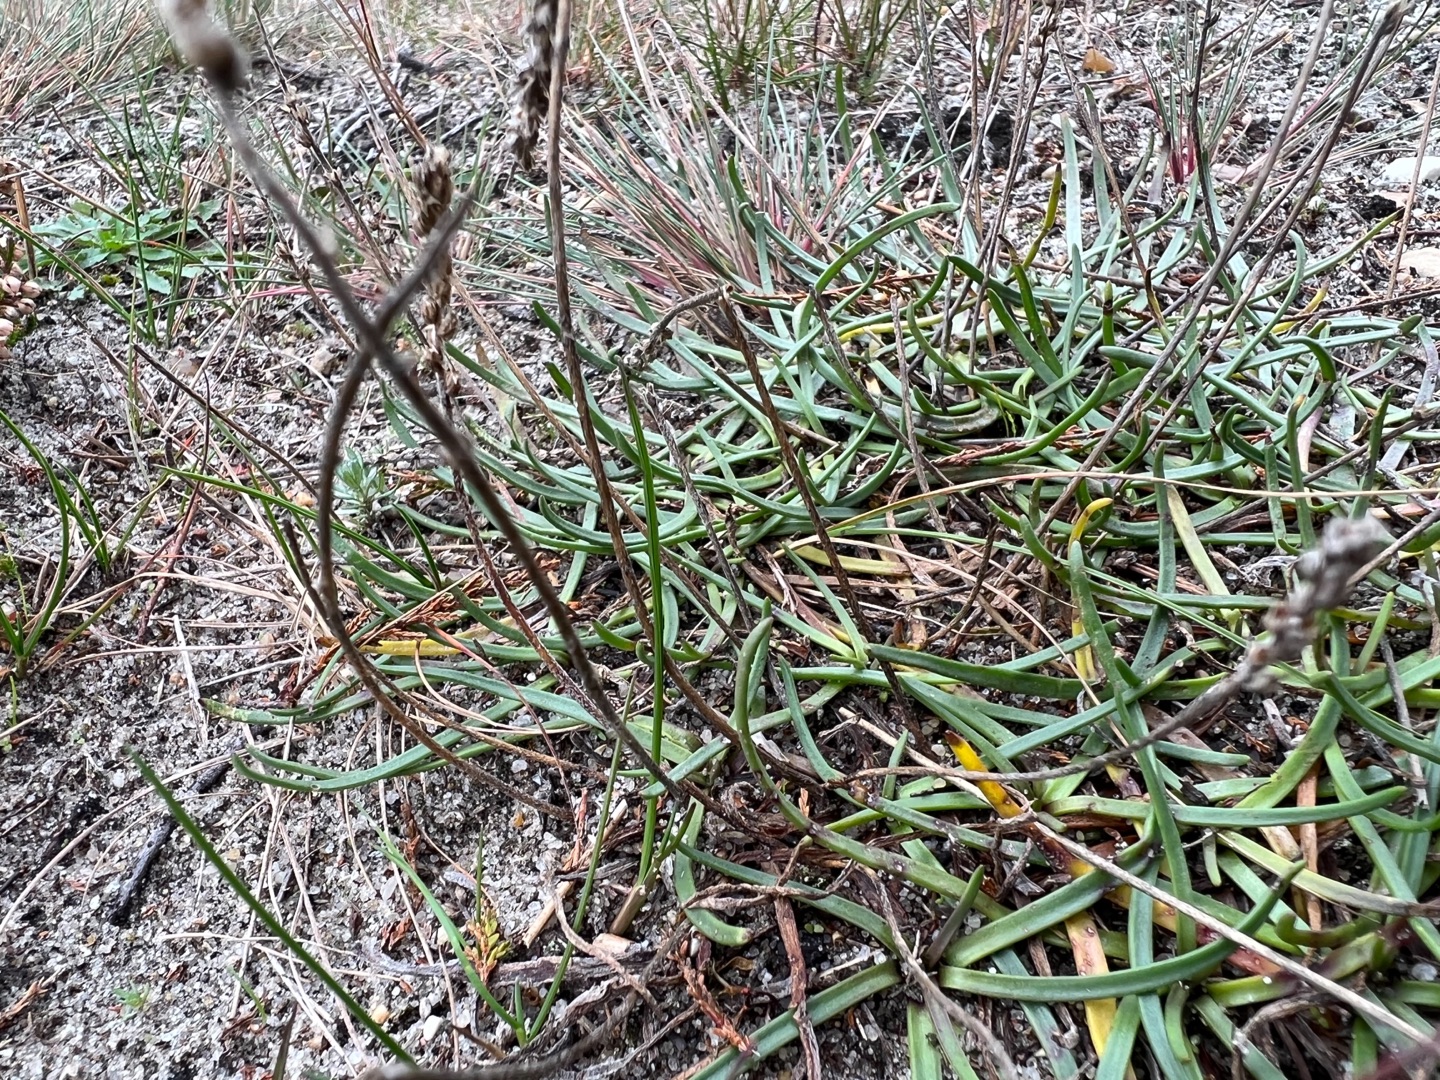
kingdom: Plantae
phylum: Tracheophyta
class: Magnoliopsida
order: Lamiales
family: Plantaginaceae
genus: Plantago
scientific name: Plantago maritima
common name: Strand-vejbred
